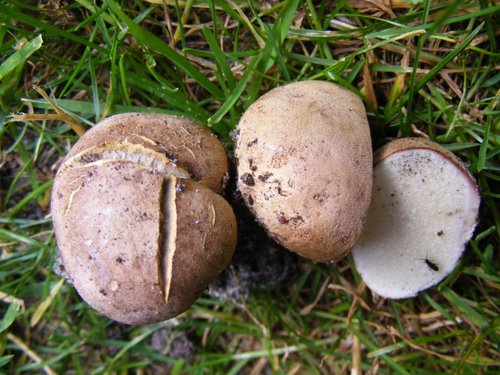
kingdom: Fungi
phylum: Basidiomycota
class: Agaricomycetes
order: Boletales
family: Sclerodermataceae
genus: Scleroderma
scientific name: Scleroderma bovista
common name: bovist-bruskbold
